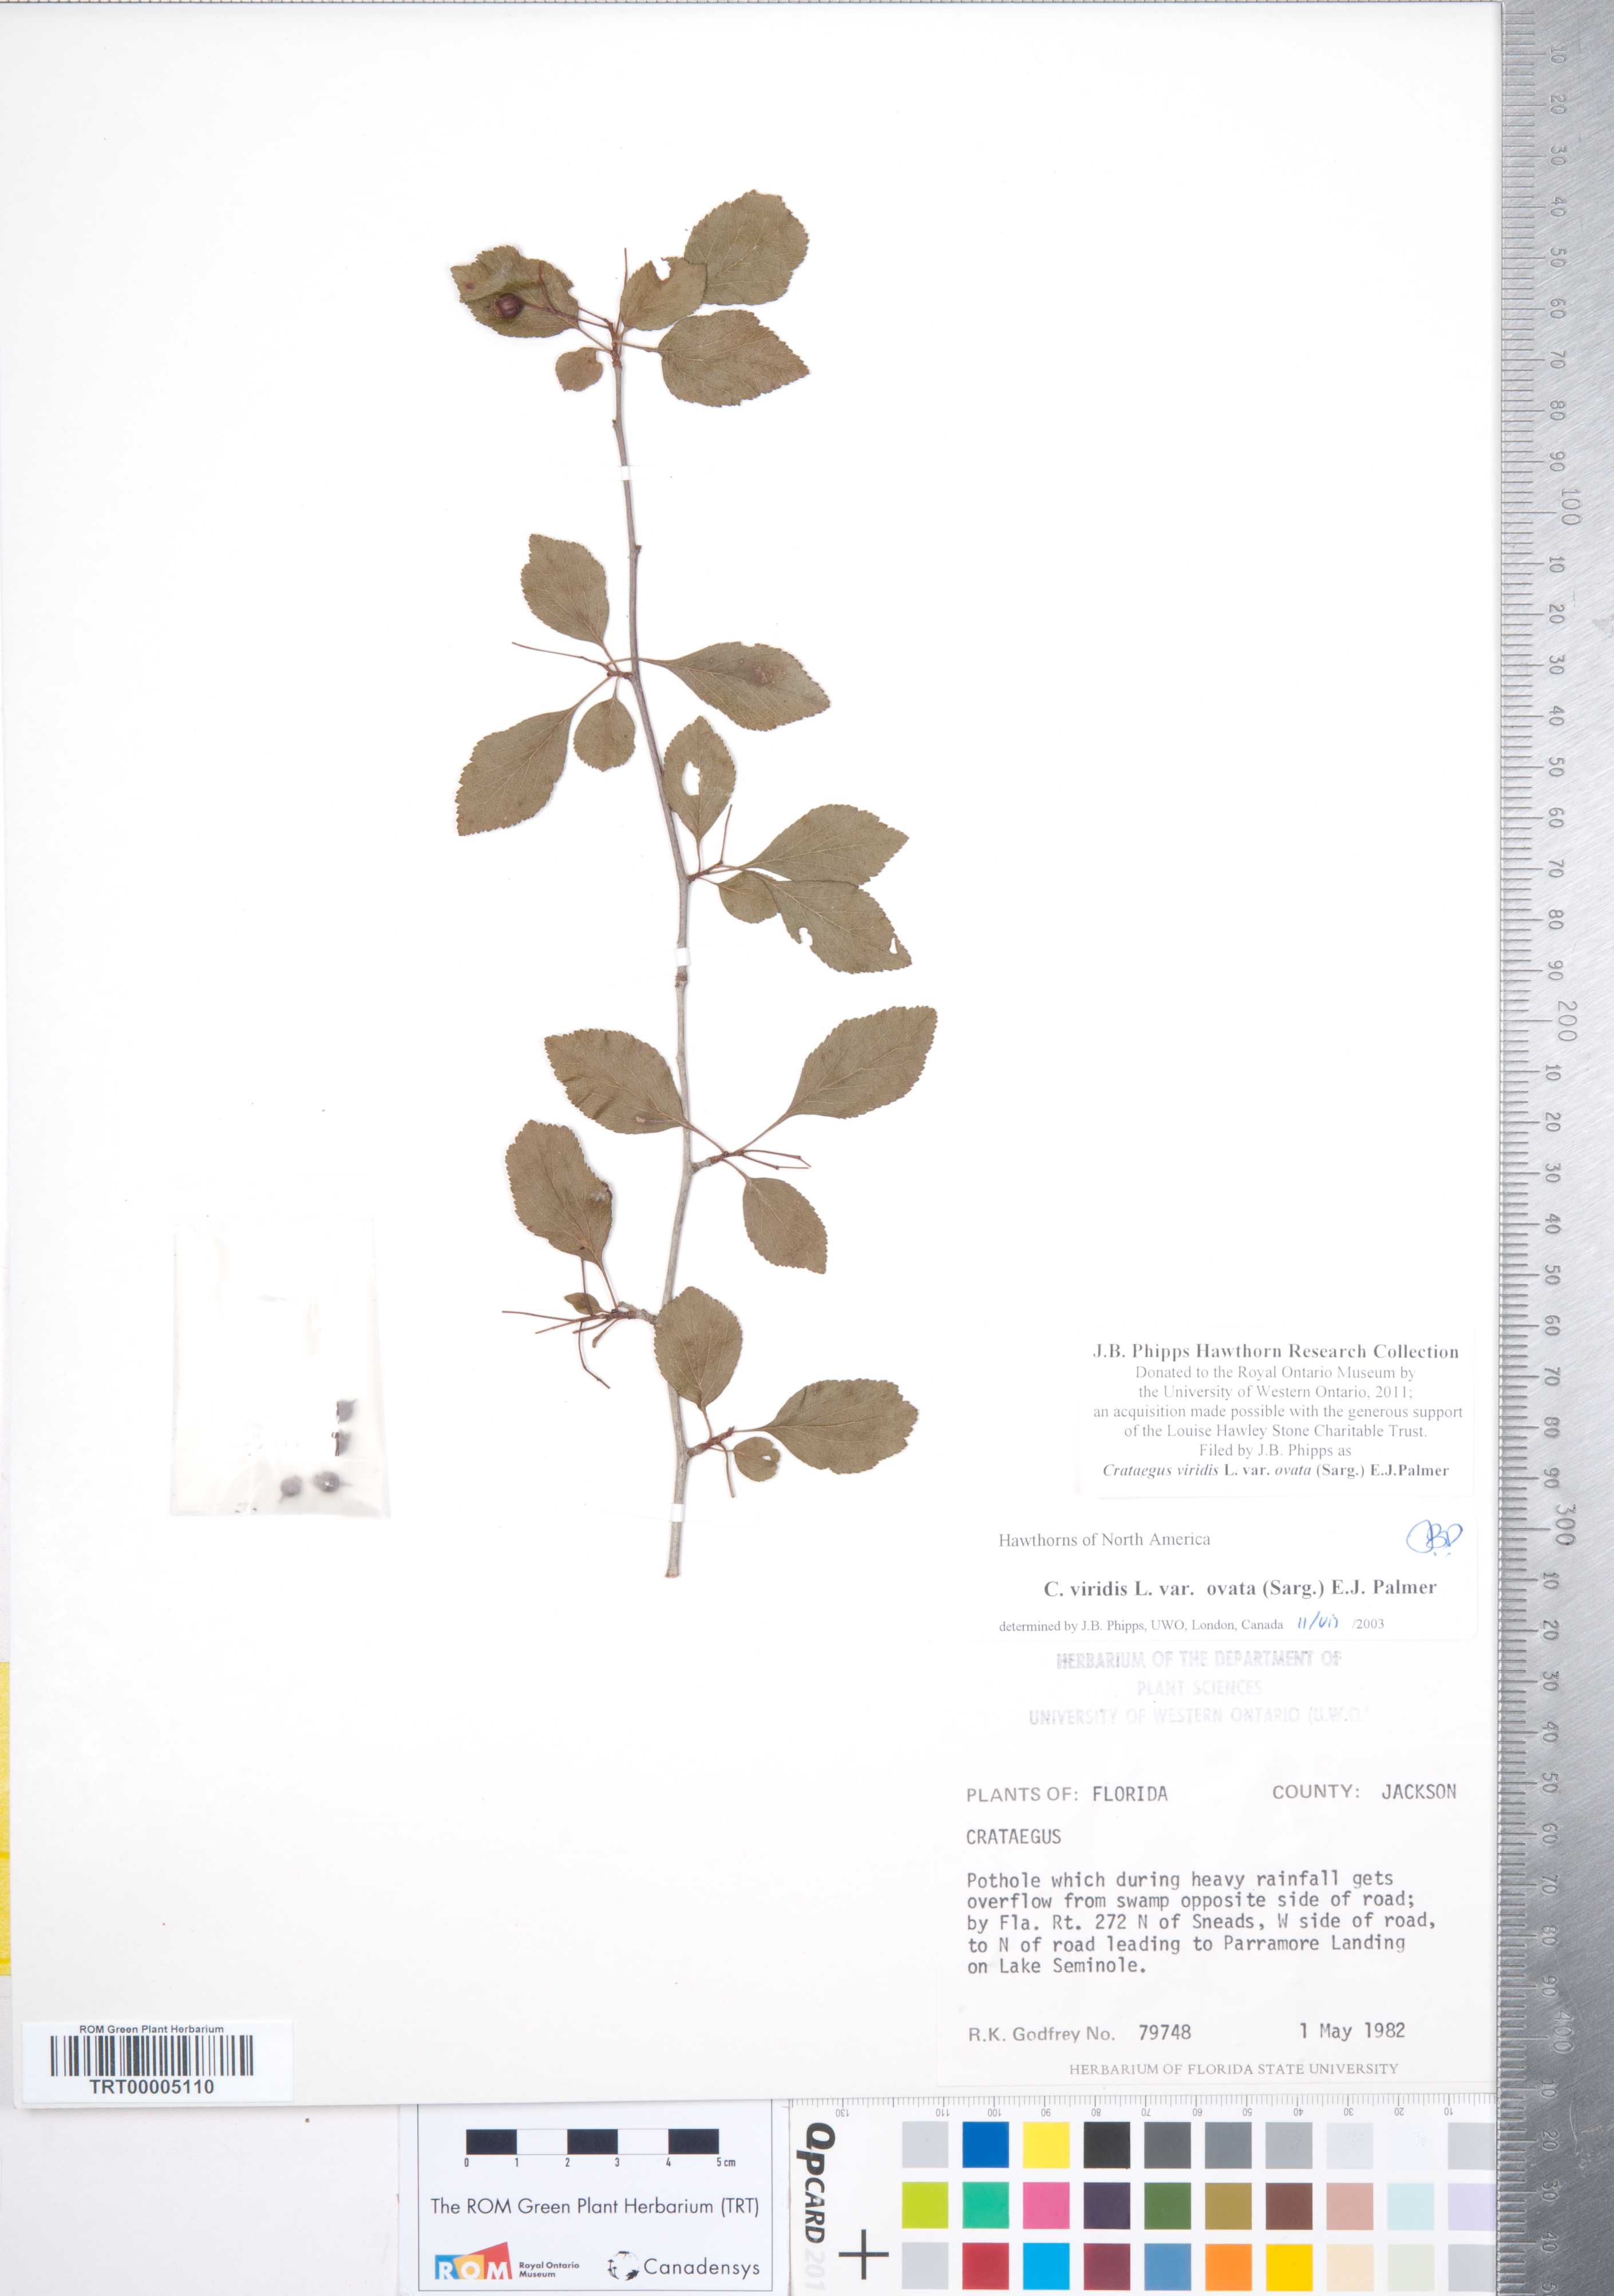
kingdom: Plantae
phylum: Tracheophyta
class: Magnoliopsida
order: Rosales
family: Rosaceae
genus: Crataegus
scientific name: Crataegus viridis
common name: Southernthorn
